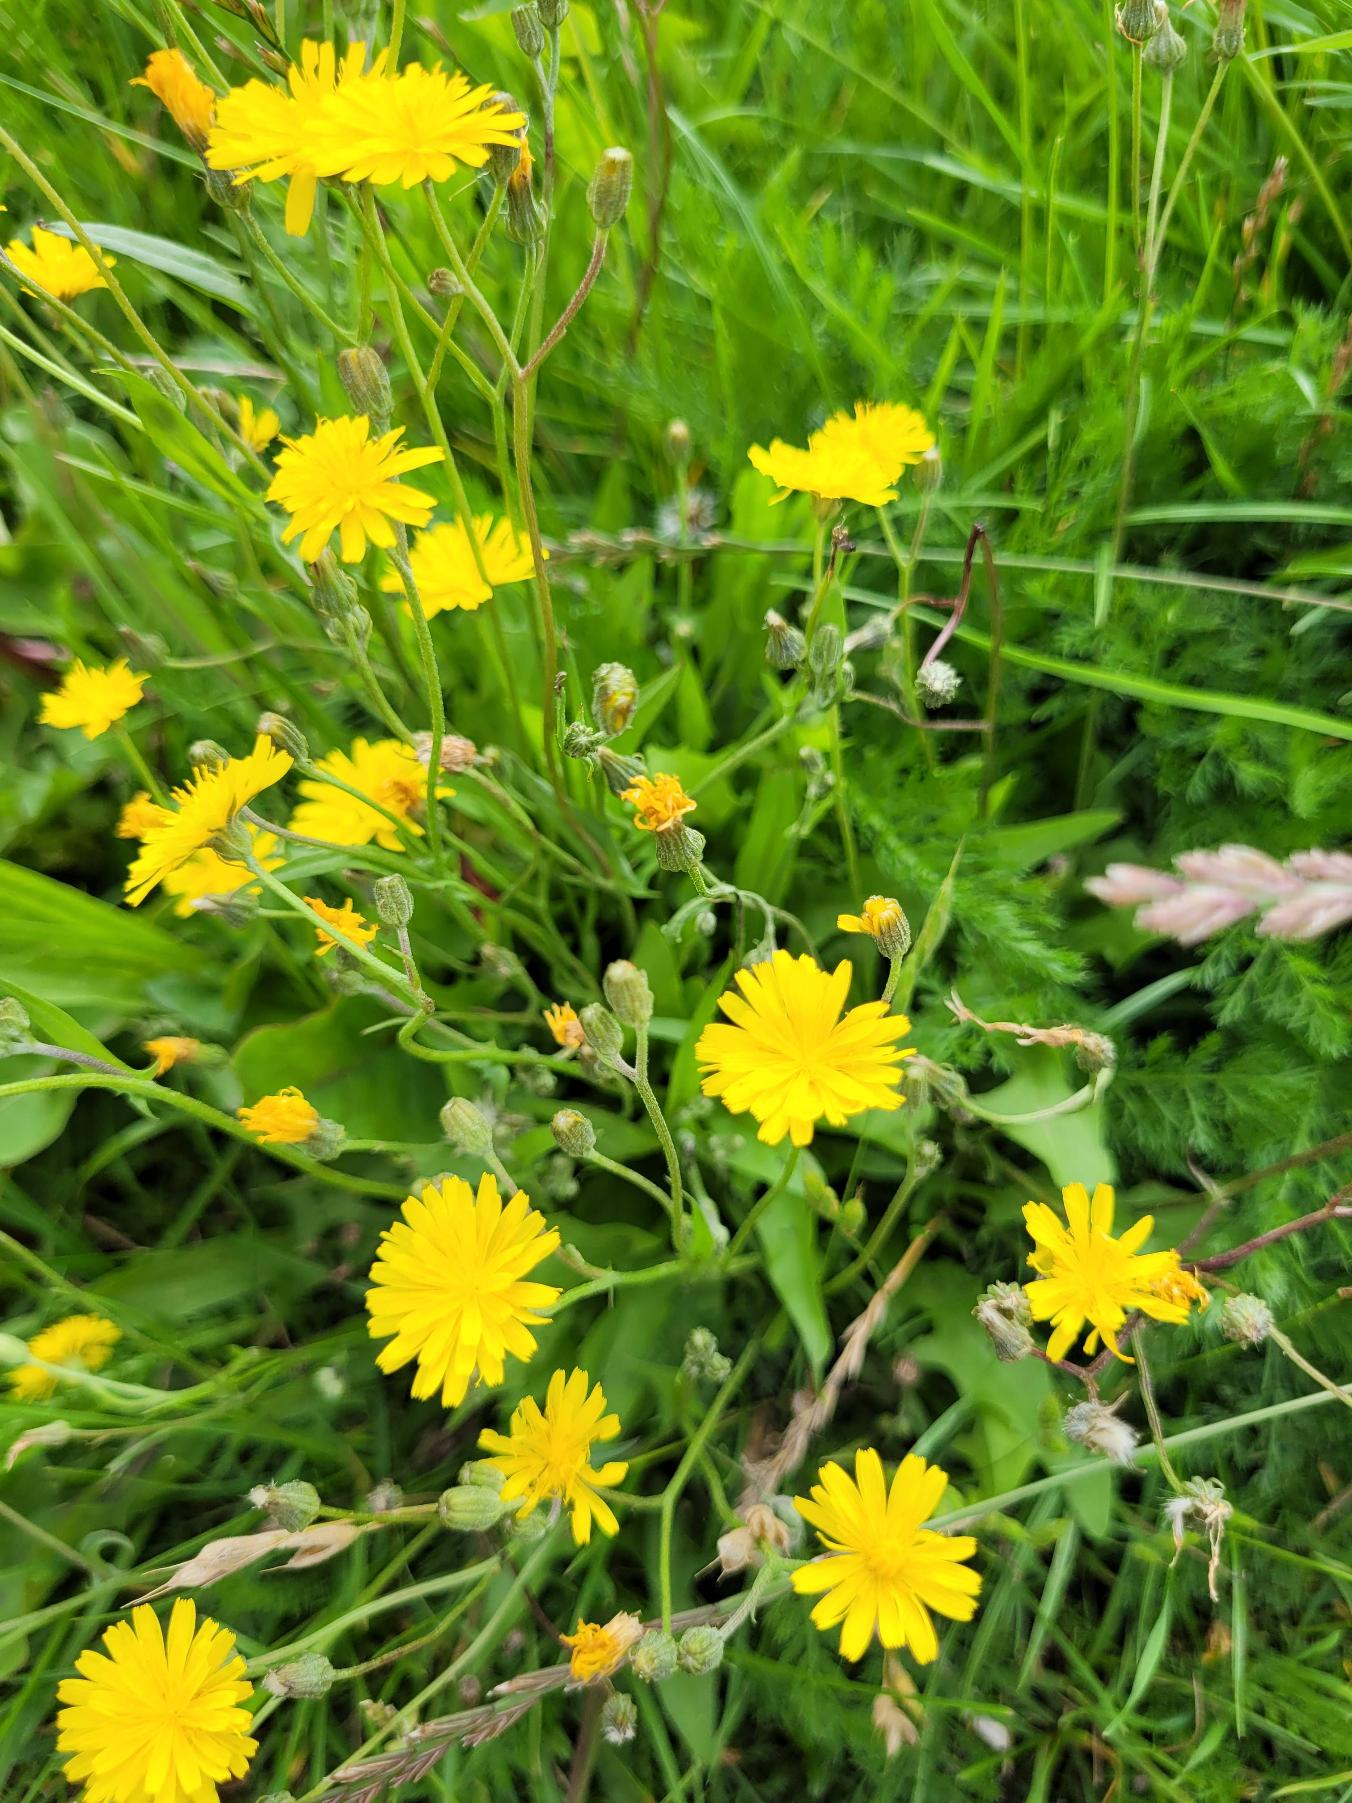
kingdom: Plantae
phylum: Tracheophyta
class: Magnoliopsida
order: Asterales
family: Asteraceae
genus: Crepis
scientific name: Crepis capillaris
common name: Grøn høgeskæg
